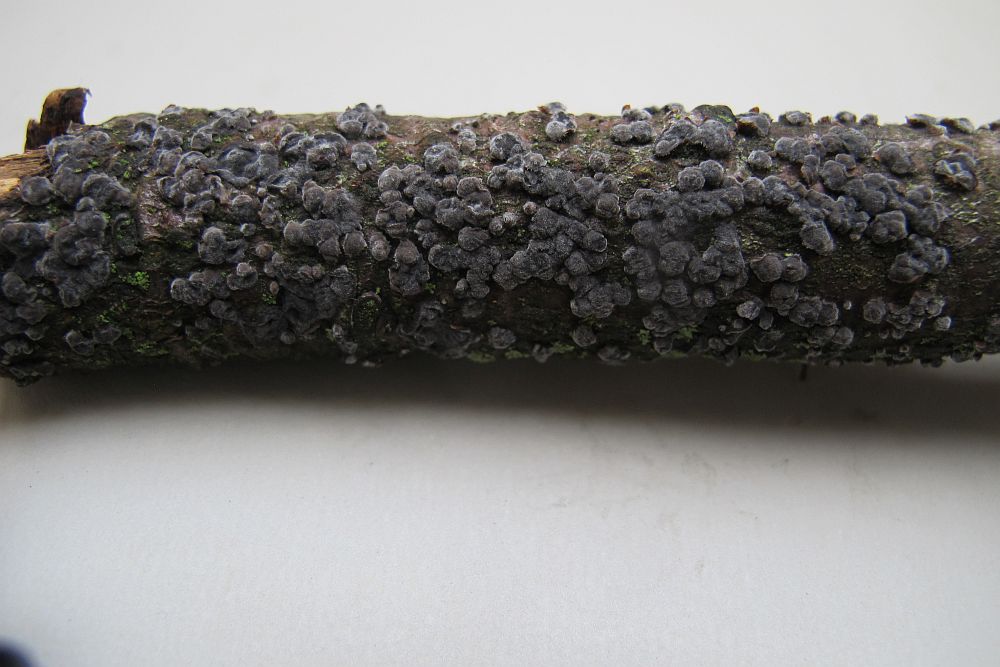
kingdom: Fungi
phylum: Basidiomycota
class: Agaricomycetes
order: Russulales
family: Peniophoraceae
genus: Peniophora
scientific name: Peniophora rufomarginata
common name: linde-voksskind
